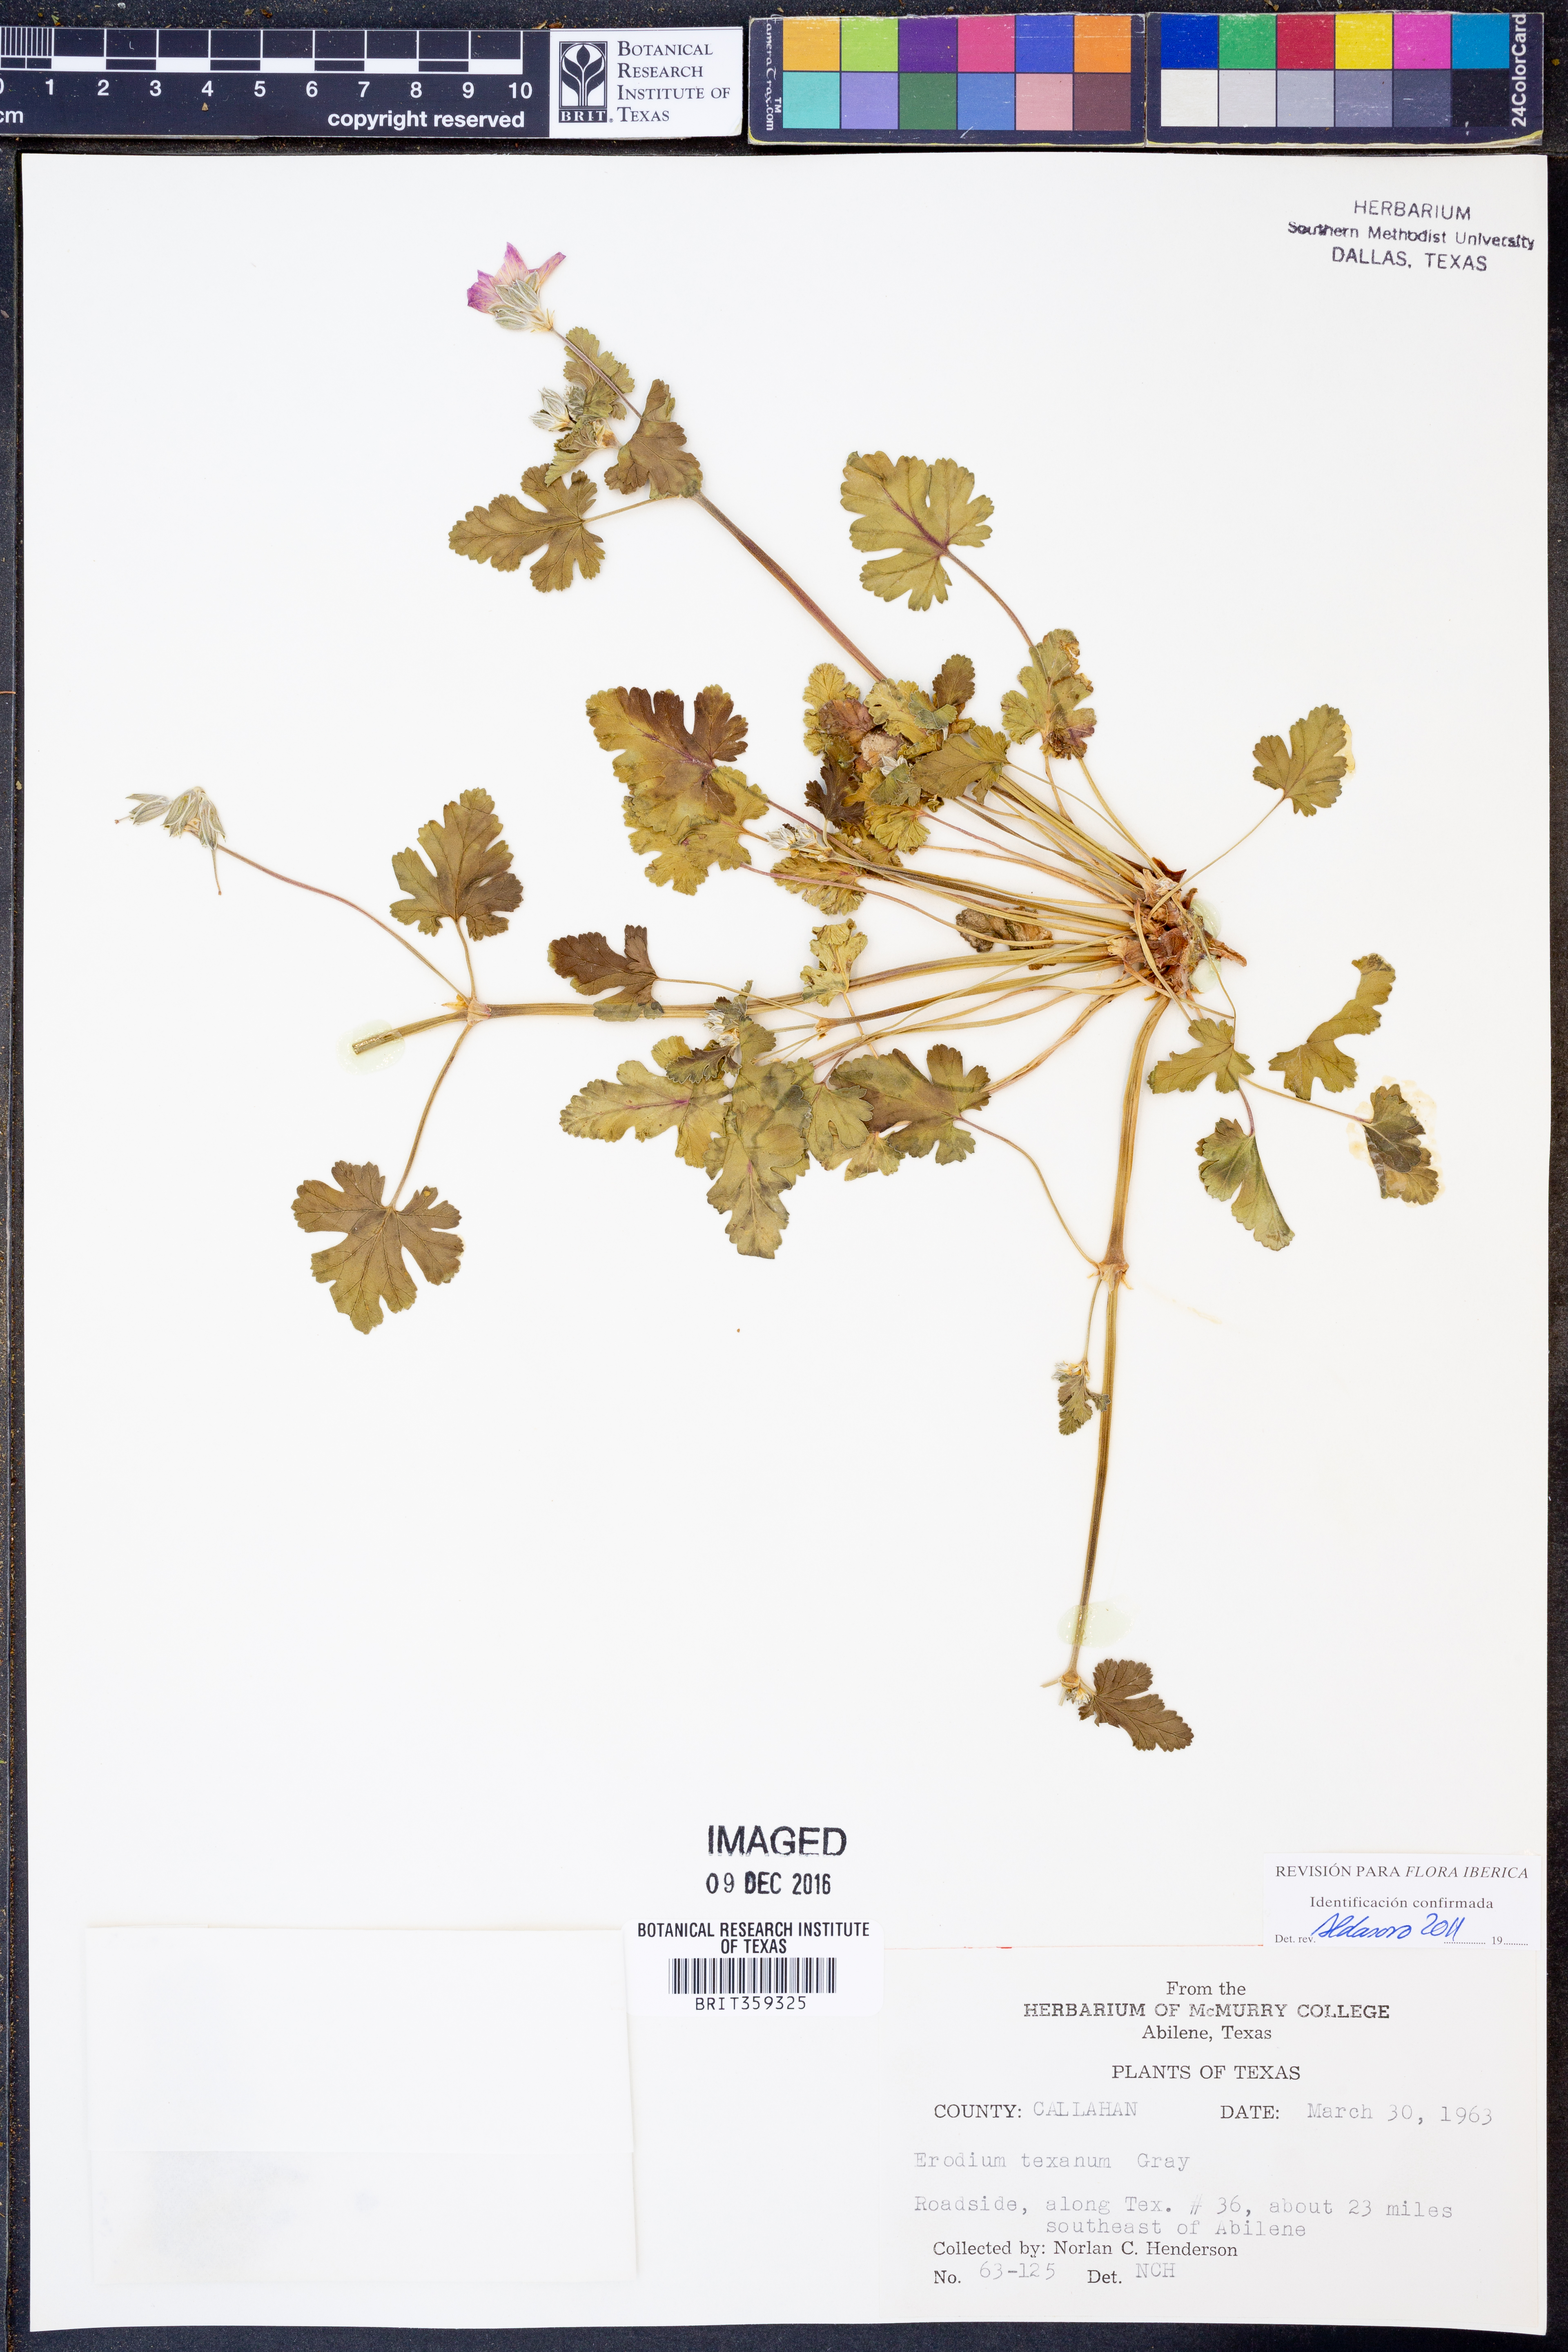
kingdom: Plantae
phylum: Tracheophyta
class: Magnoliopsida
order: Geraniales
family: Geraniaceae
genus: Erodium
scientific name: Erodium texanum
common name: Texas stork's-bill
